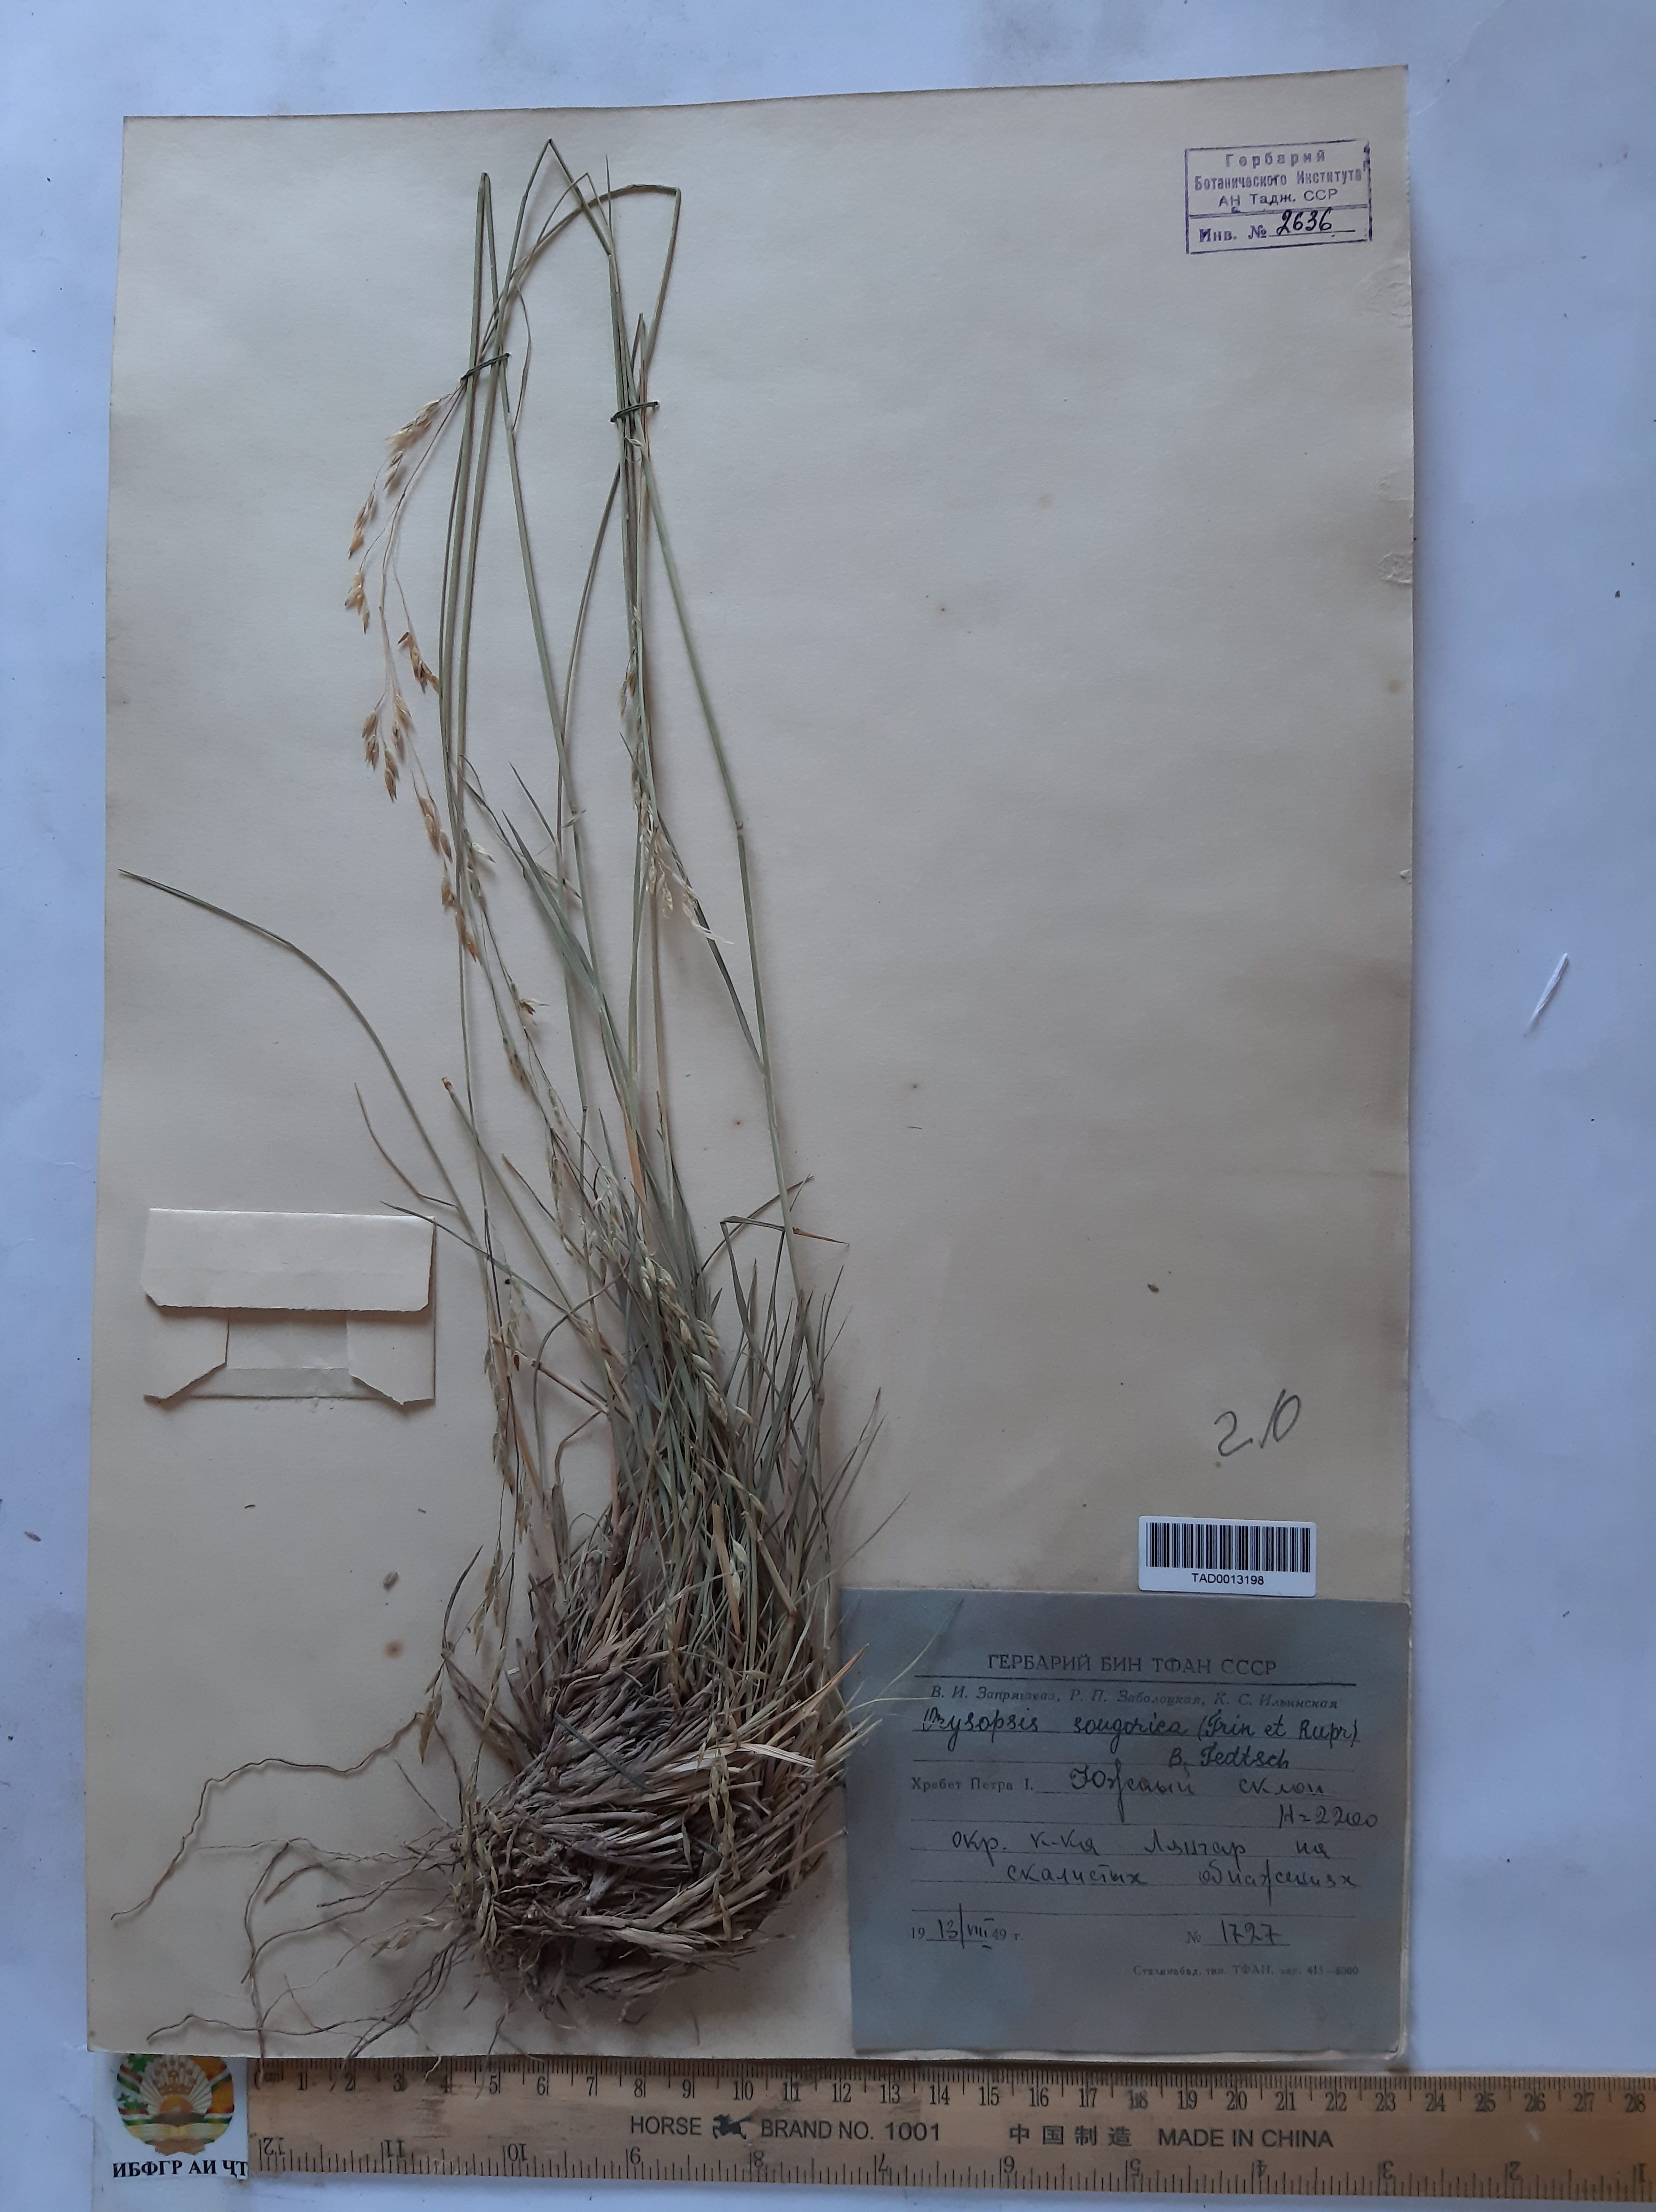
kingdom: Plantae
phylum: Tracheophyta
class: Liliopsida
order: Poales
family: Poaceae
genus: Piptatherum
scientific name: Piptatherum songaricum
